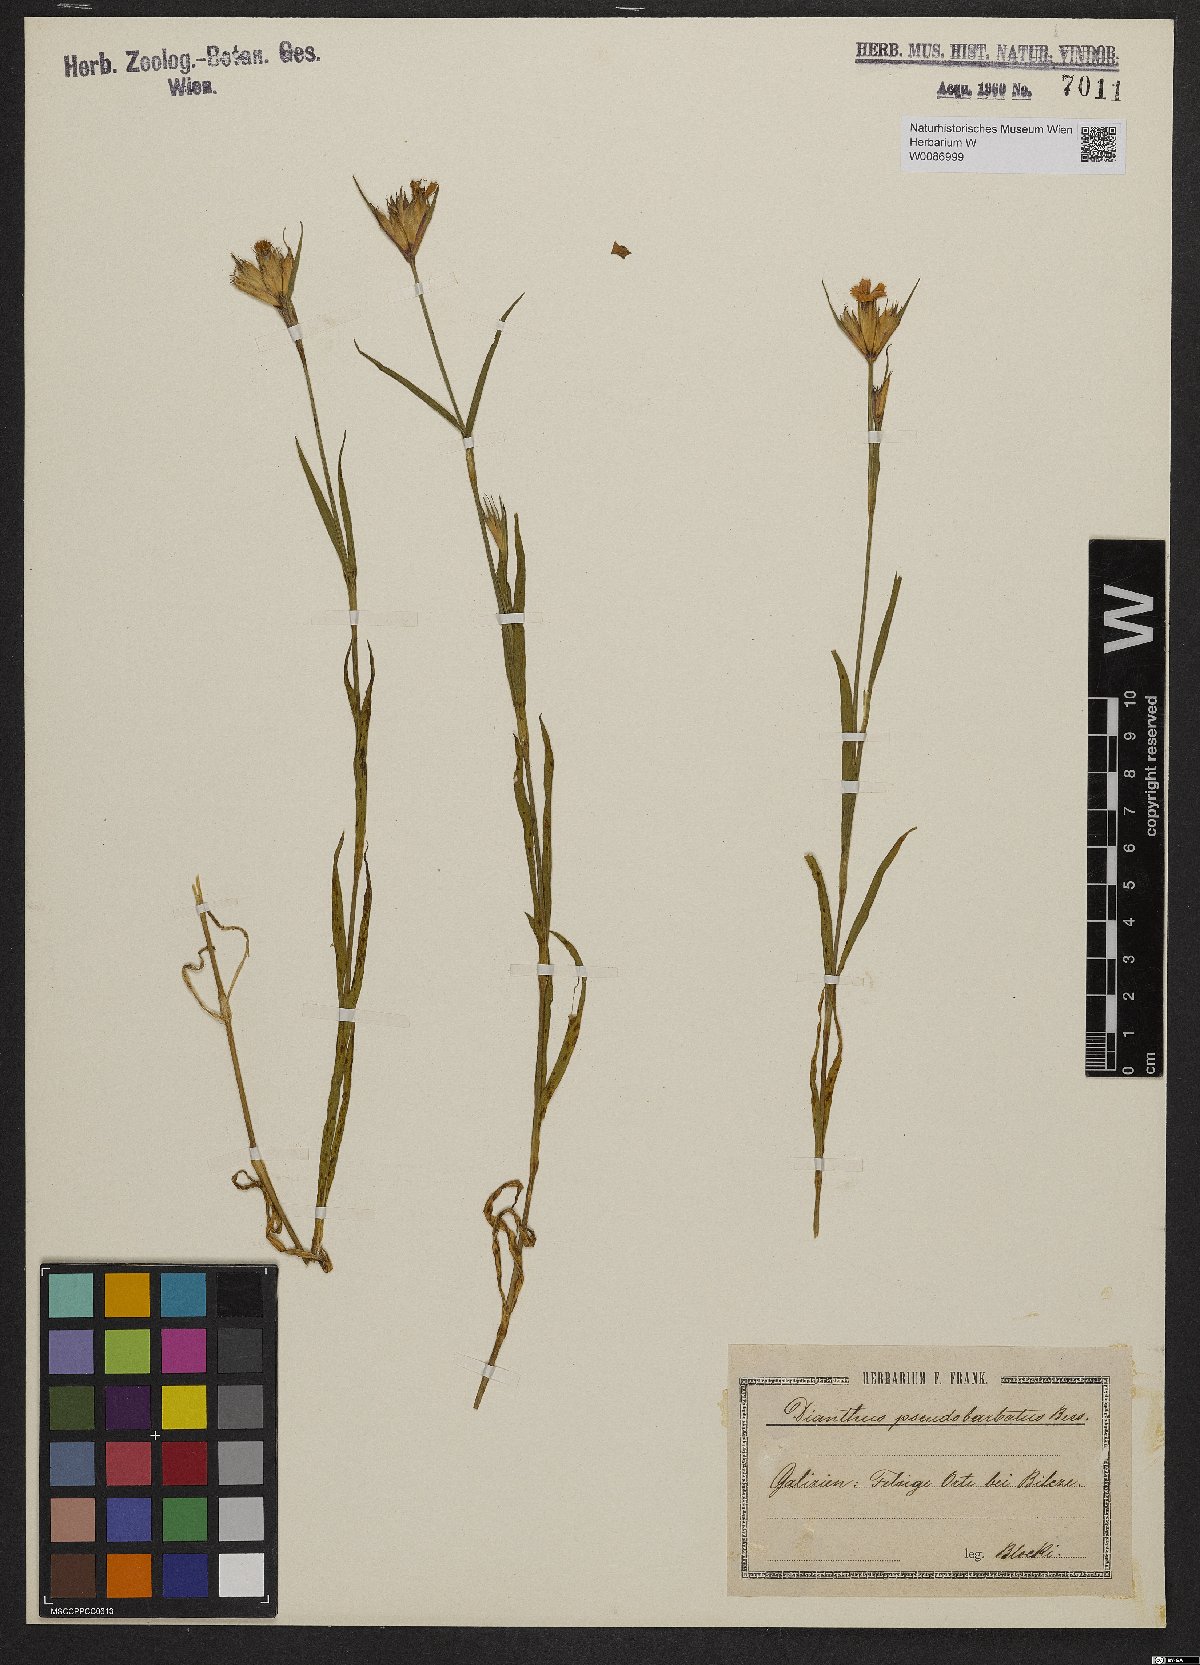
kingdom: Plantae
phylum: Tracheophyta
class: Magnoliopsida
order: Caryophyllales
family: Caryophyllaceae
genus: Dianthus
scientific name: Dianthus trifasciculatus
